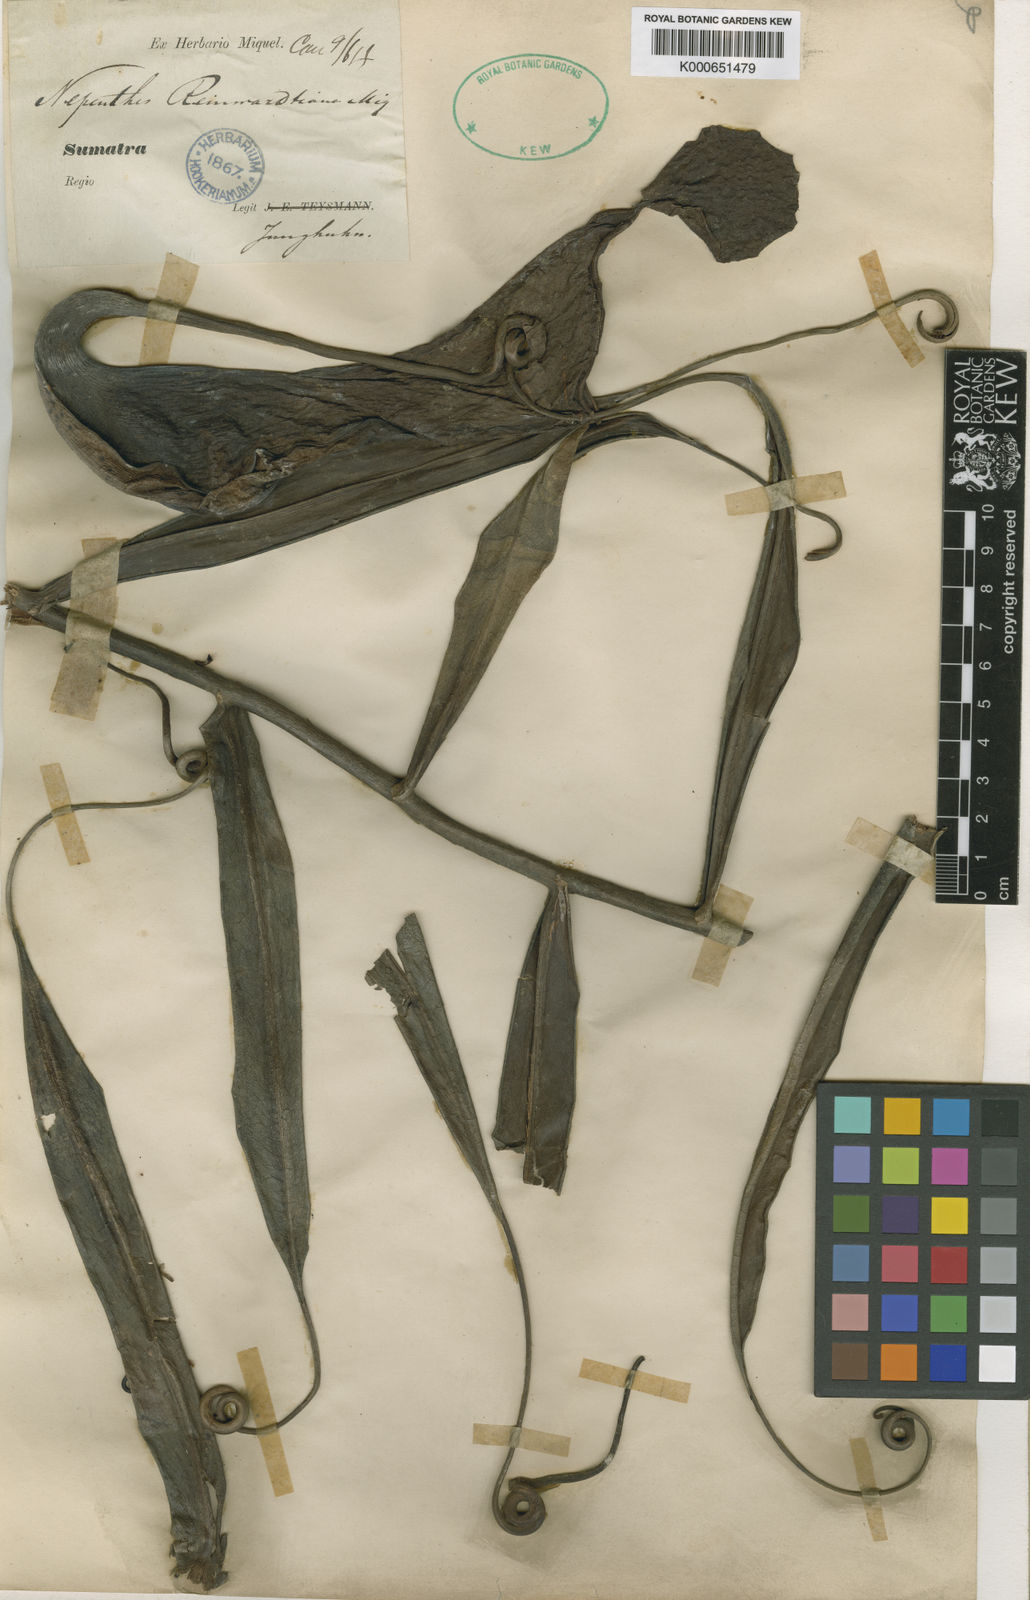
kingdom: Plantae
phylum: Tracheophyta
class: Magnoliopsida
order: Caryophyllales
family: Nepenthaceae
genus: Nepenthes
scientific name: Nepenthes reinwardtiana
